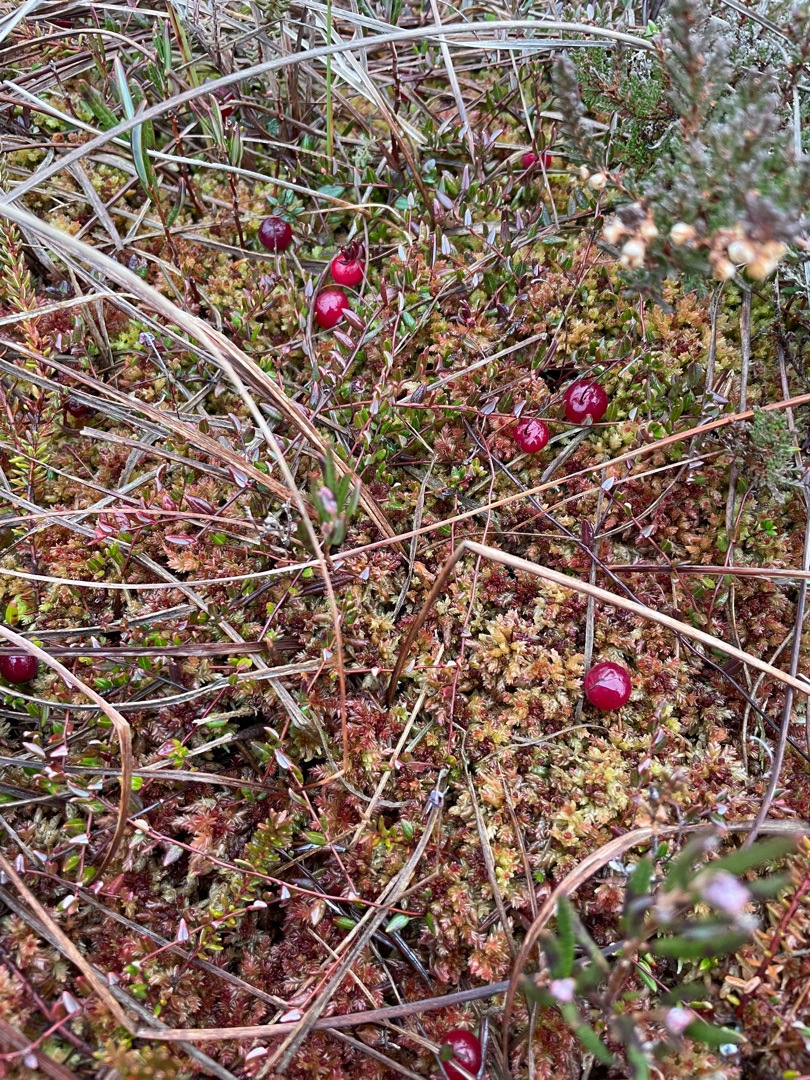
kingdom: Plantae
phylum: Tracheophyta
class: Magnoliopsida
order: Ericales
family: Ericaceae
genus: Vaccinium
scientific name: Vaccinium oxycoccos
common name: Tranebær
